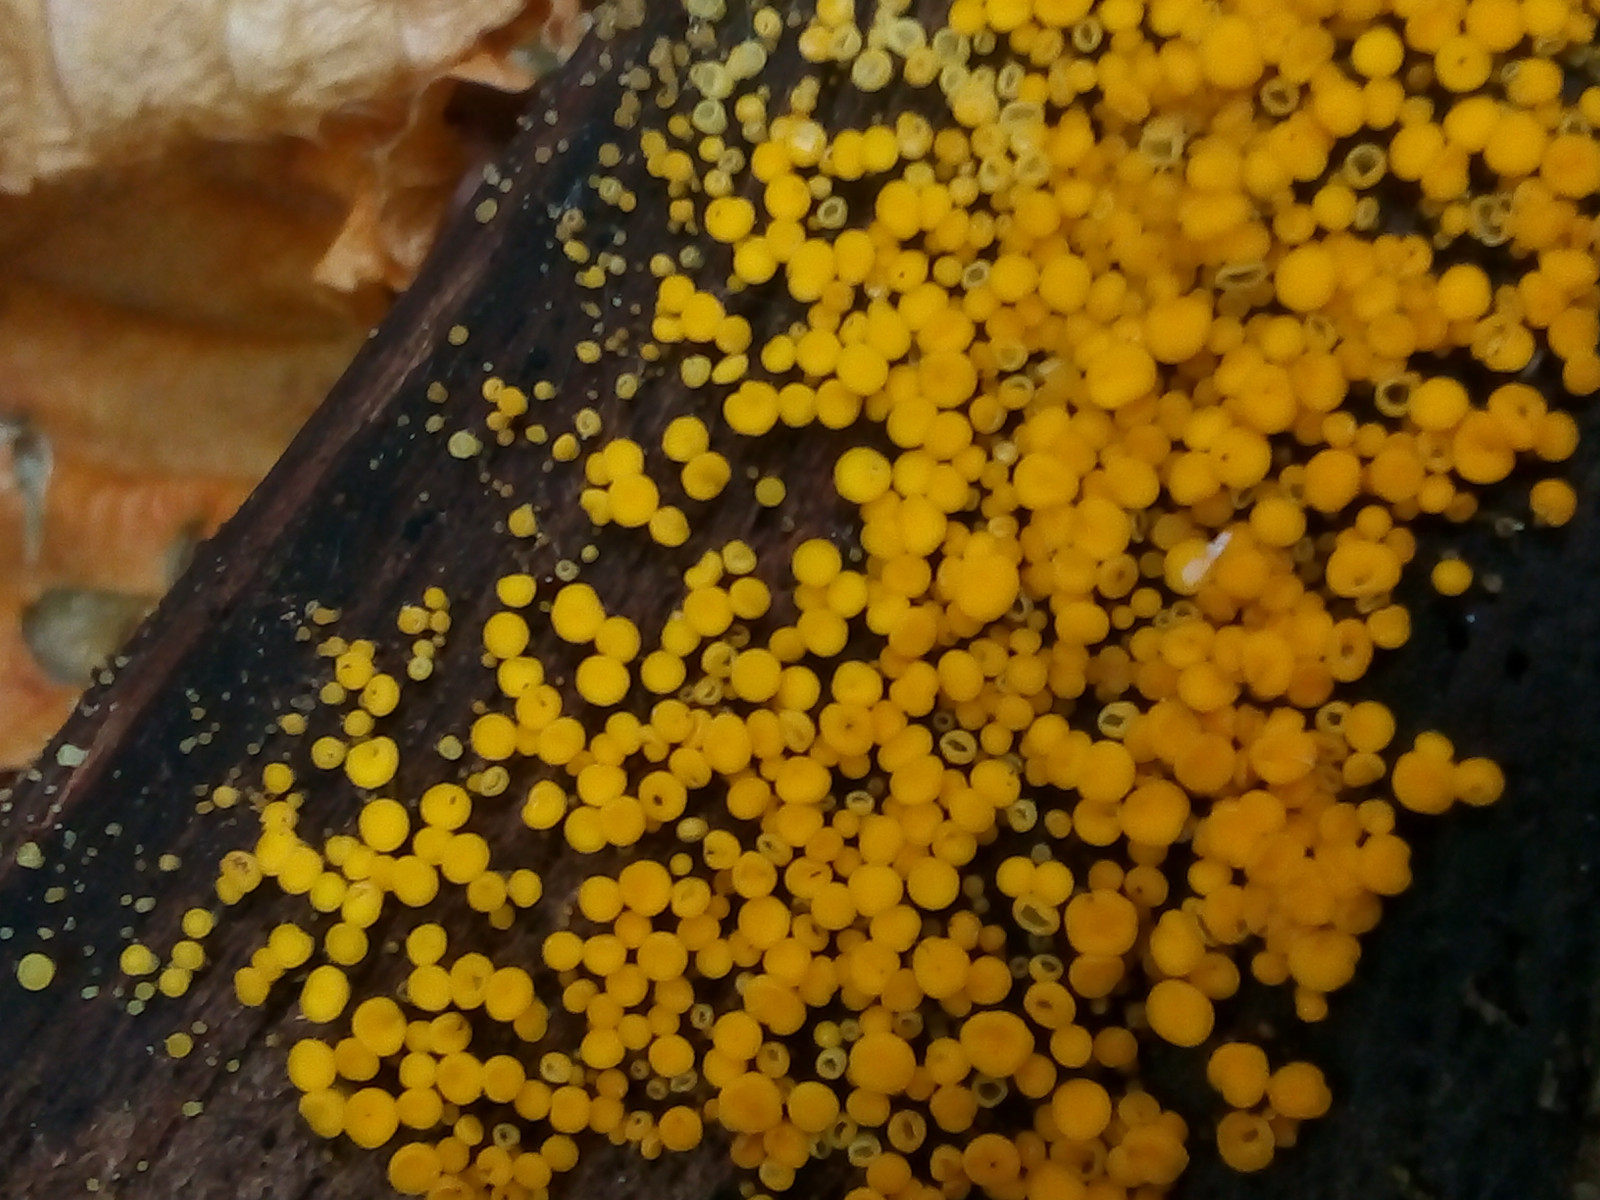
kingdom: Fungi
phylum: Ascomycota
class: Leotiomycetes
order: Helotiales
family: Pezizellaceae
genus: Calycina
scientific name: Calycina citrina
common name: almindelig gulskive
